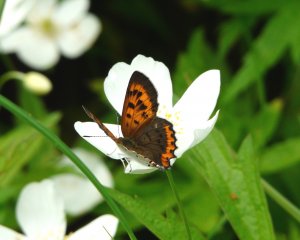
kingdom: Animalia
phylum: Arthropoda
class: Insecta
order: Lepidoptera
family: Sesiidae
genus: Sesia
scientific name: Sesia Lycaena hyllus
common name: Bronze Copper
